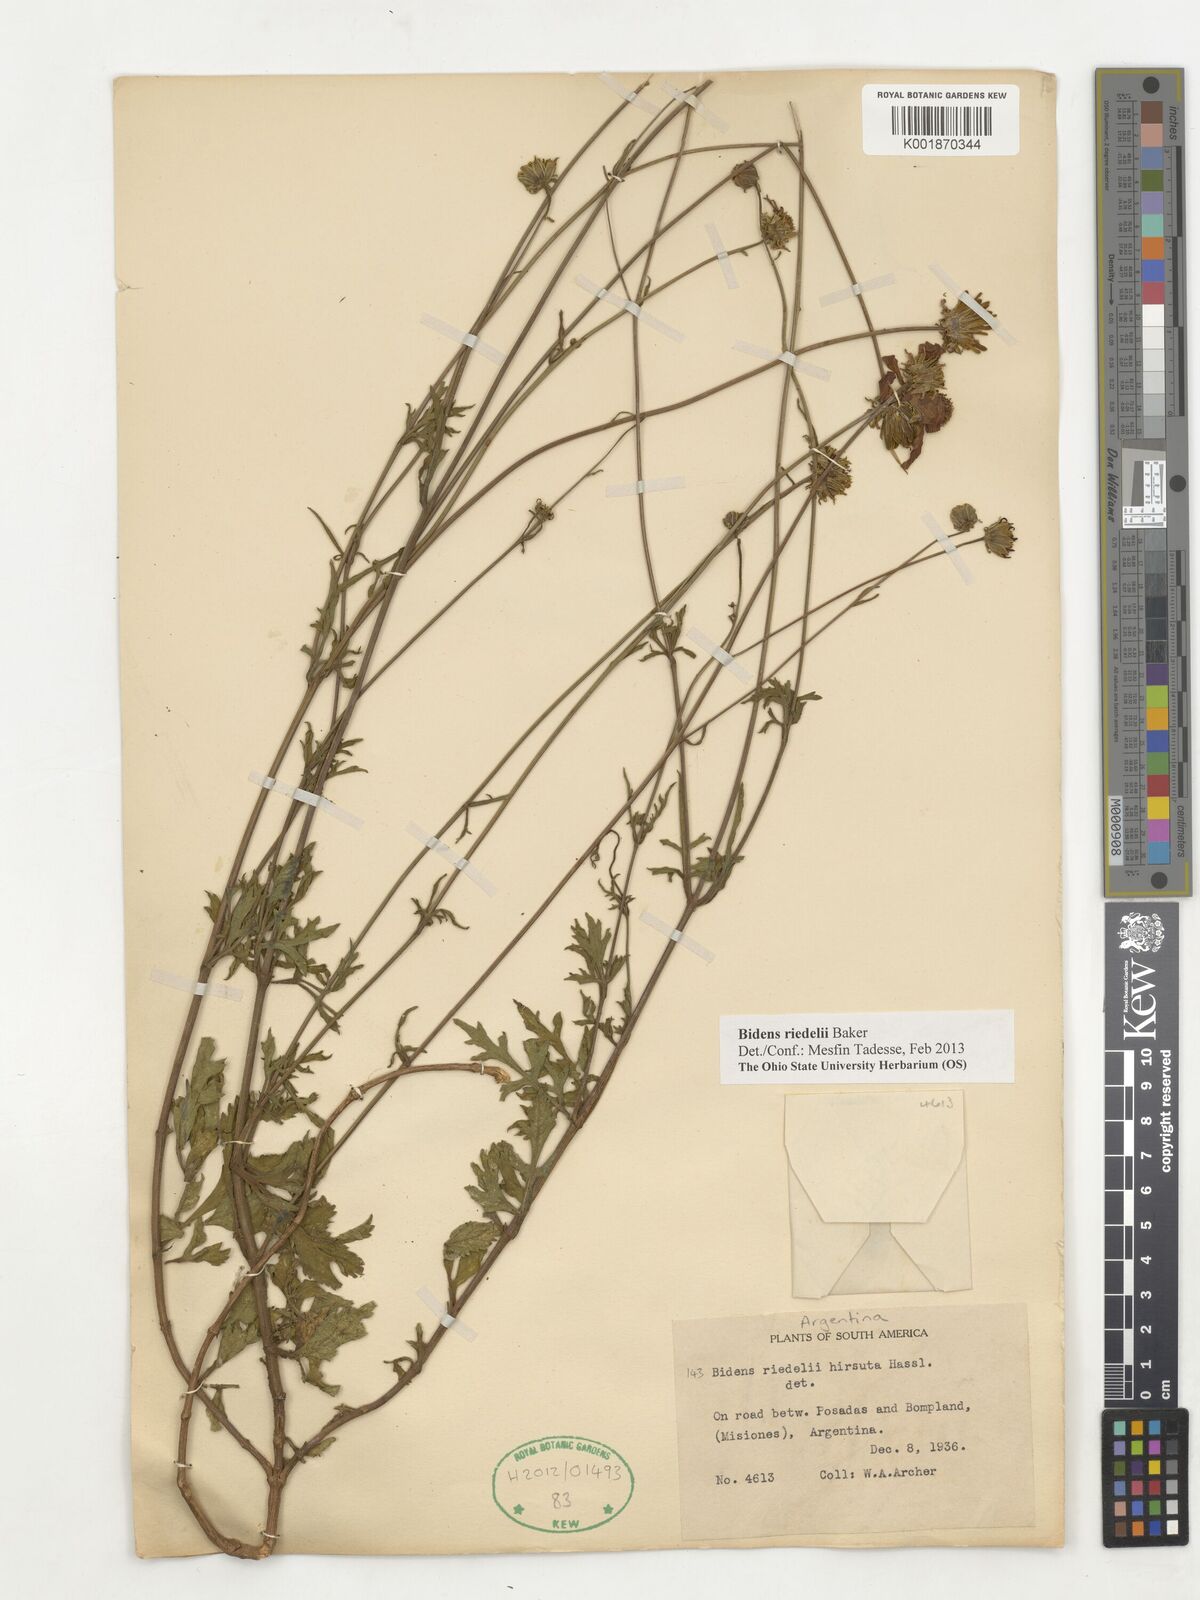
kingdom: Plantae
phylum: Tracheophyta
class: Magnoliopsida
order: Asterales
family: Asteraceae
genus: Bidens
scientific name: Bidens riedelii
